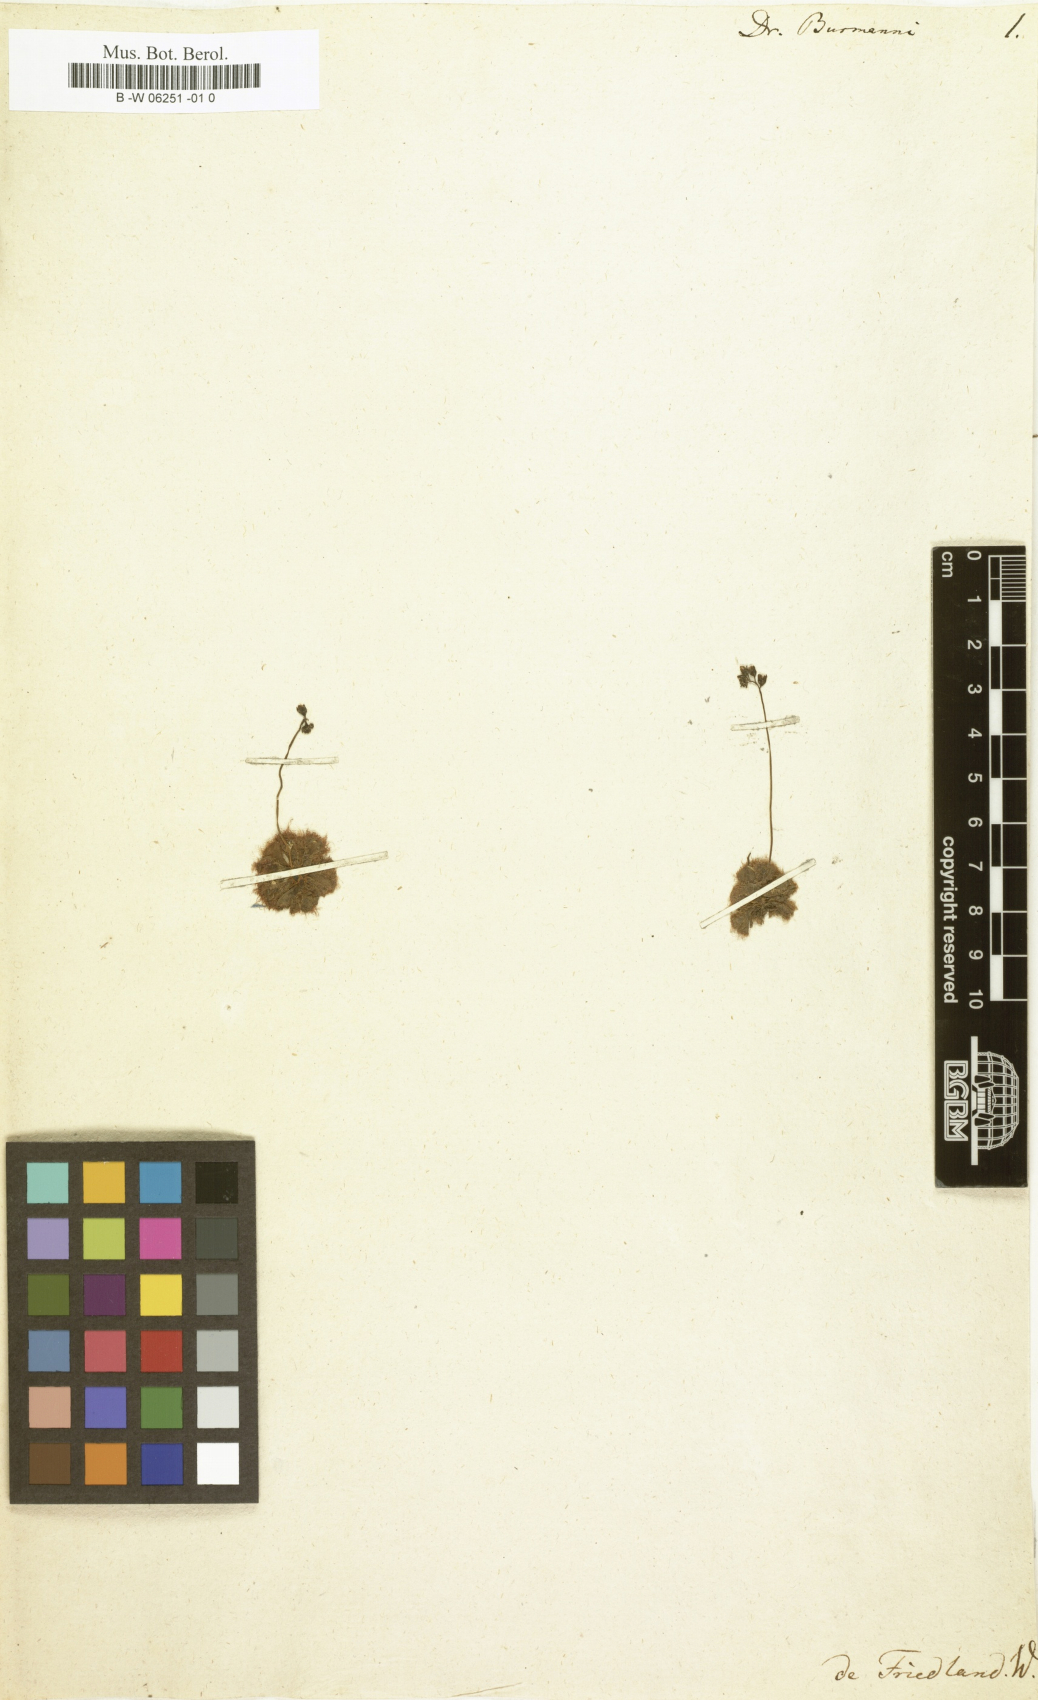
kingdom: Plantae
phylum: Tracheophyta
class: Magnoliopsida
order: Caryophyllales
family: Droseraceae
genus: Drosera
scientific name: Drosera spatulata
